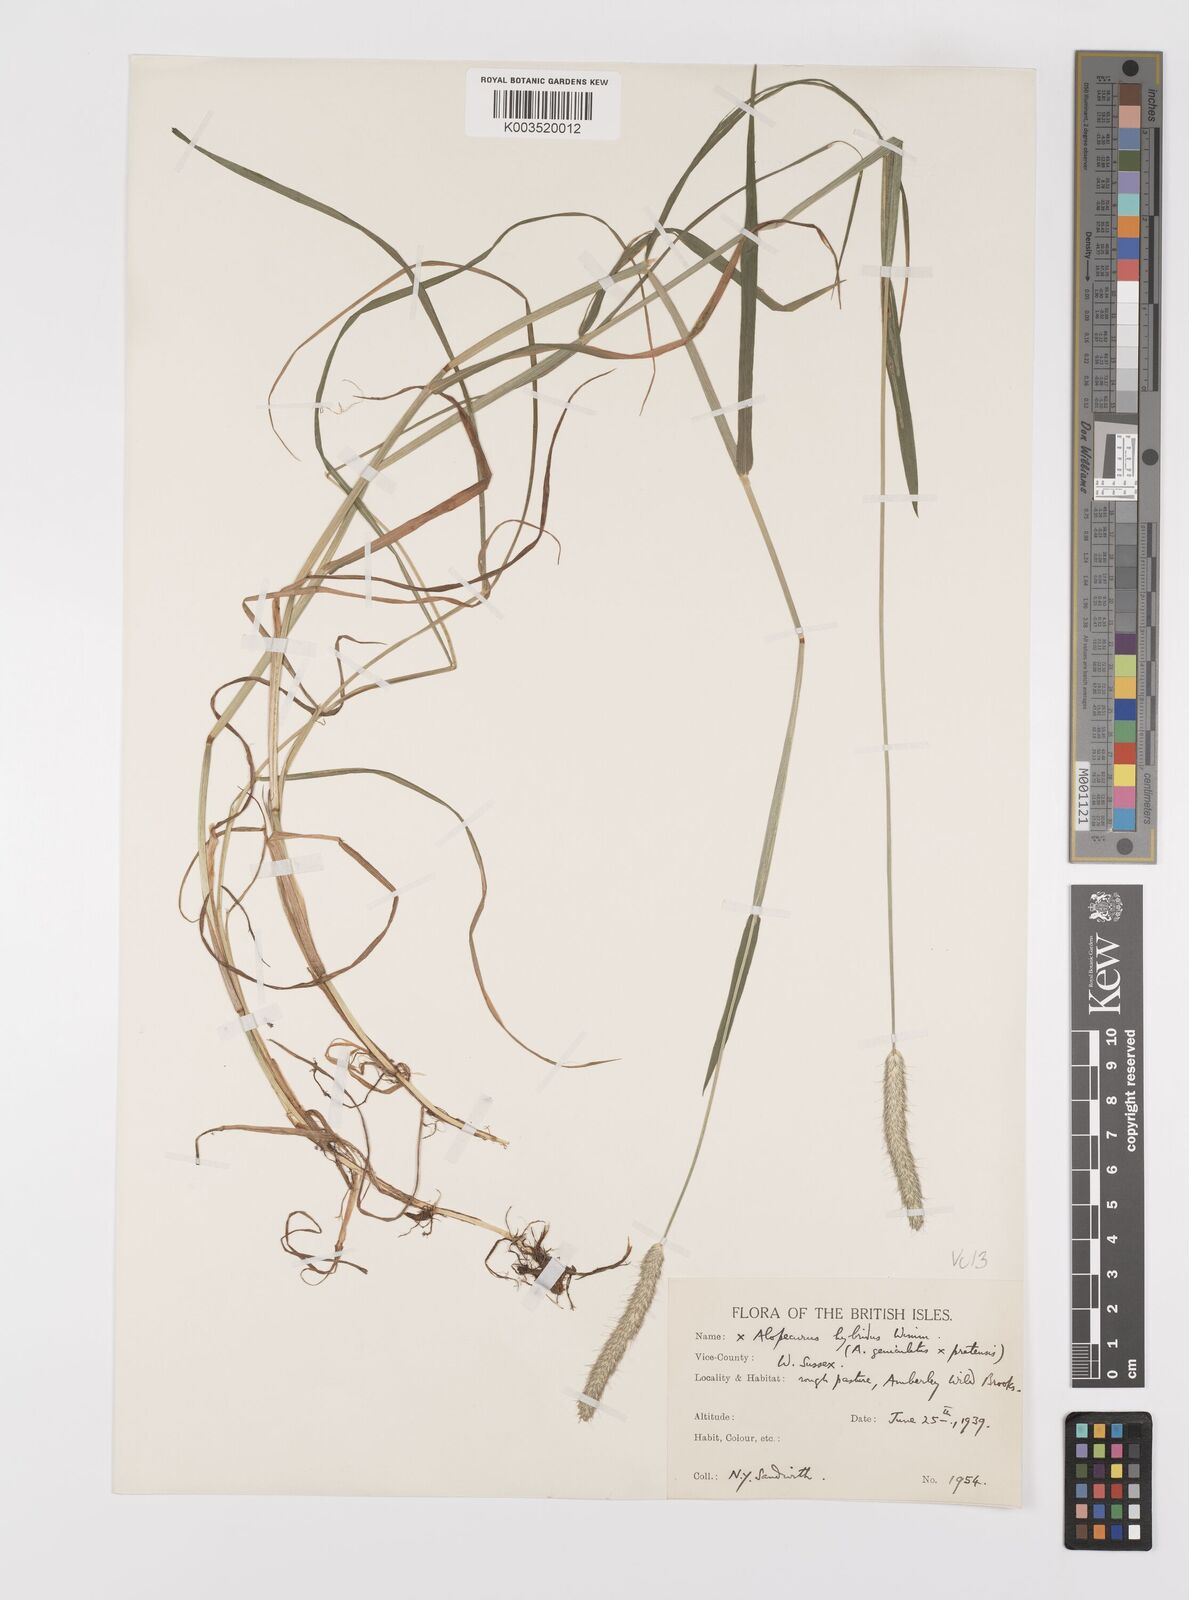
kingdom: Plantae
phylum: Tracheophyta
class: Liliopsida
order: Poales
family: Poaceae
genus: Alopecurus
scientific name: Alopecurus brachystylus
